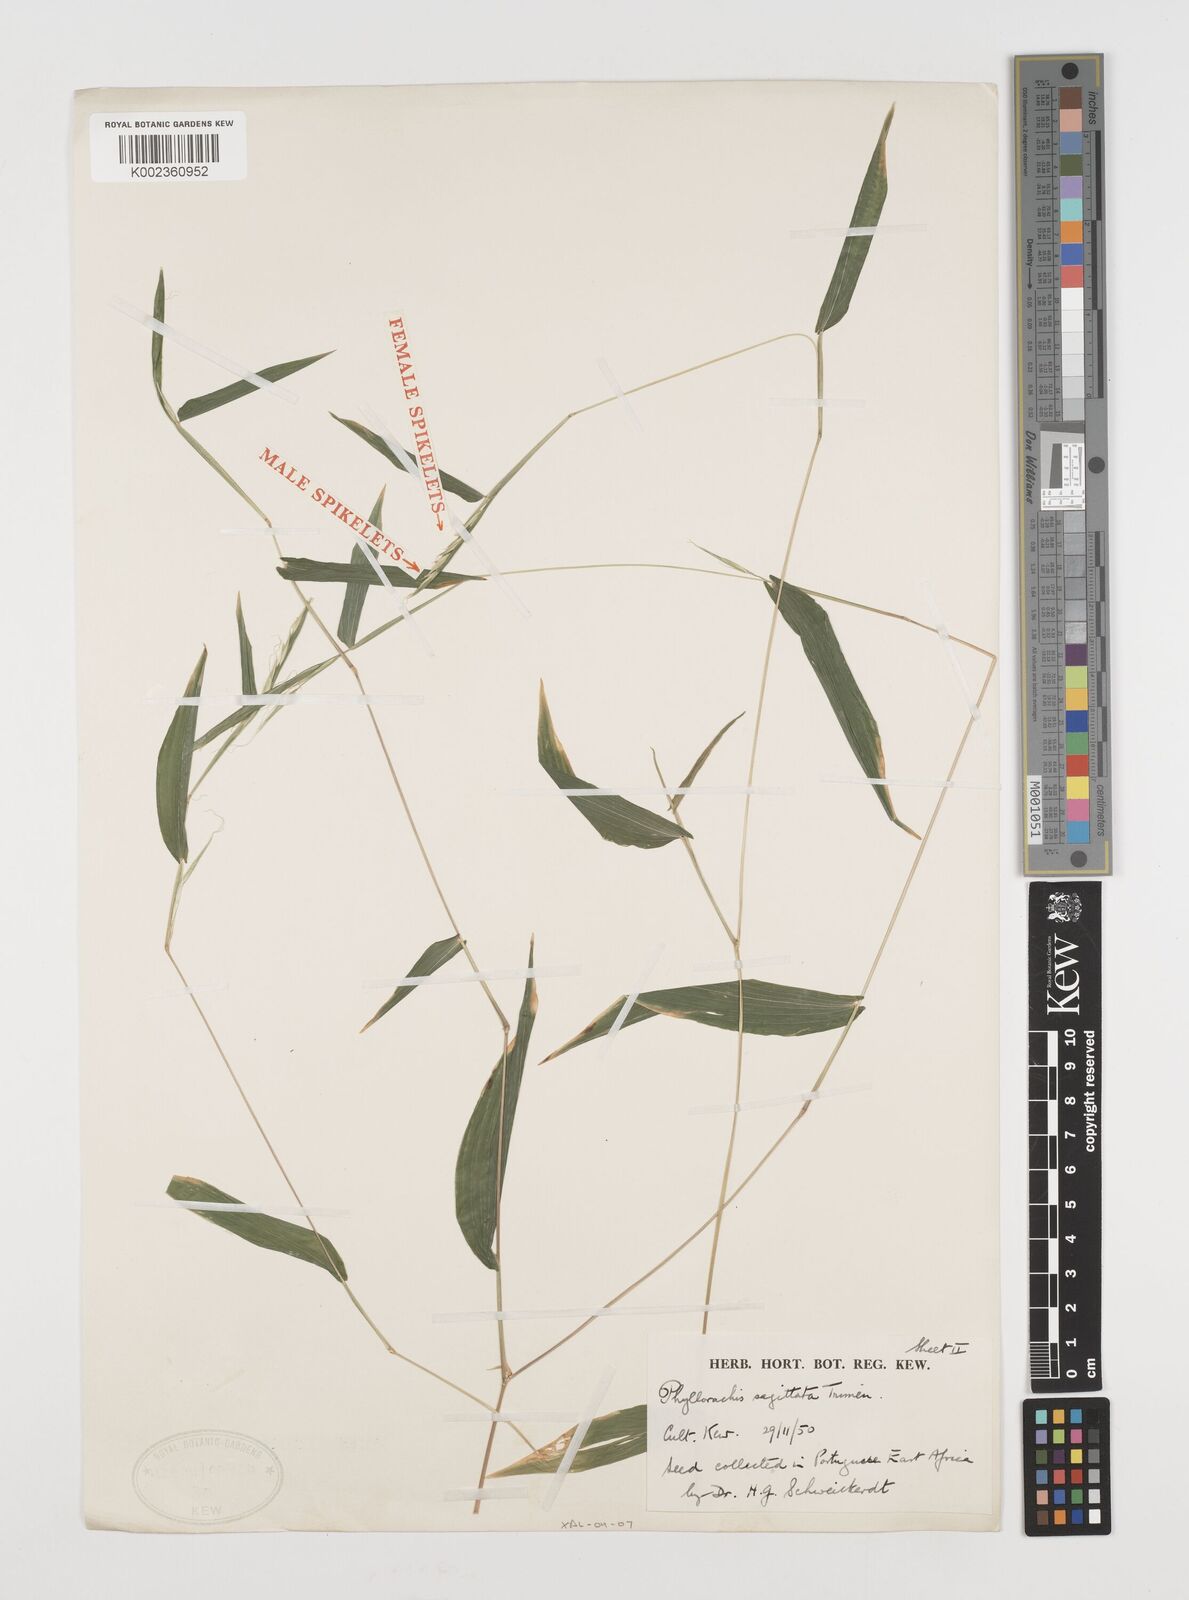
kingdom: Plantae
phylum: Tracheophyta
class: Liliopsida
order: Poales
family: Poaceae
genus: Phyllorachis
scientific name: Phyllorachis sagittata
